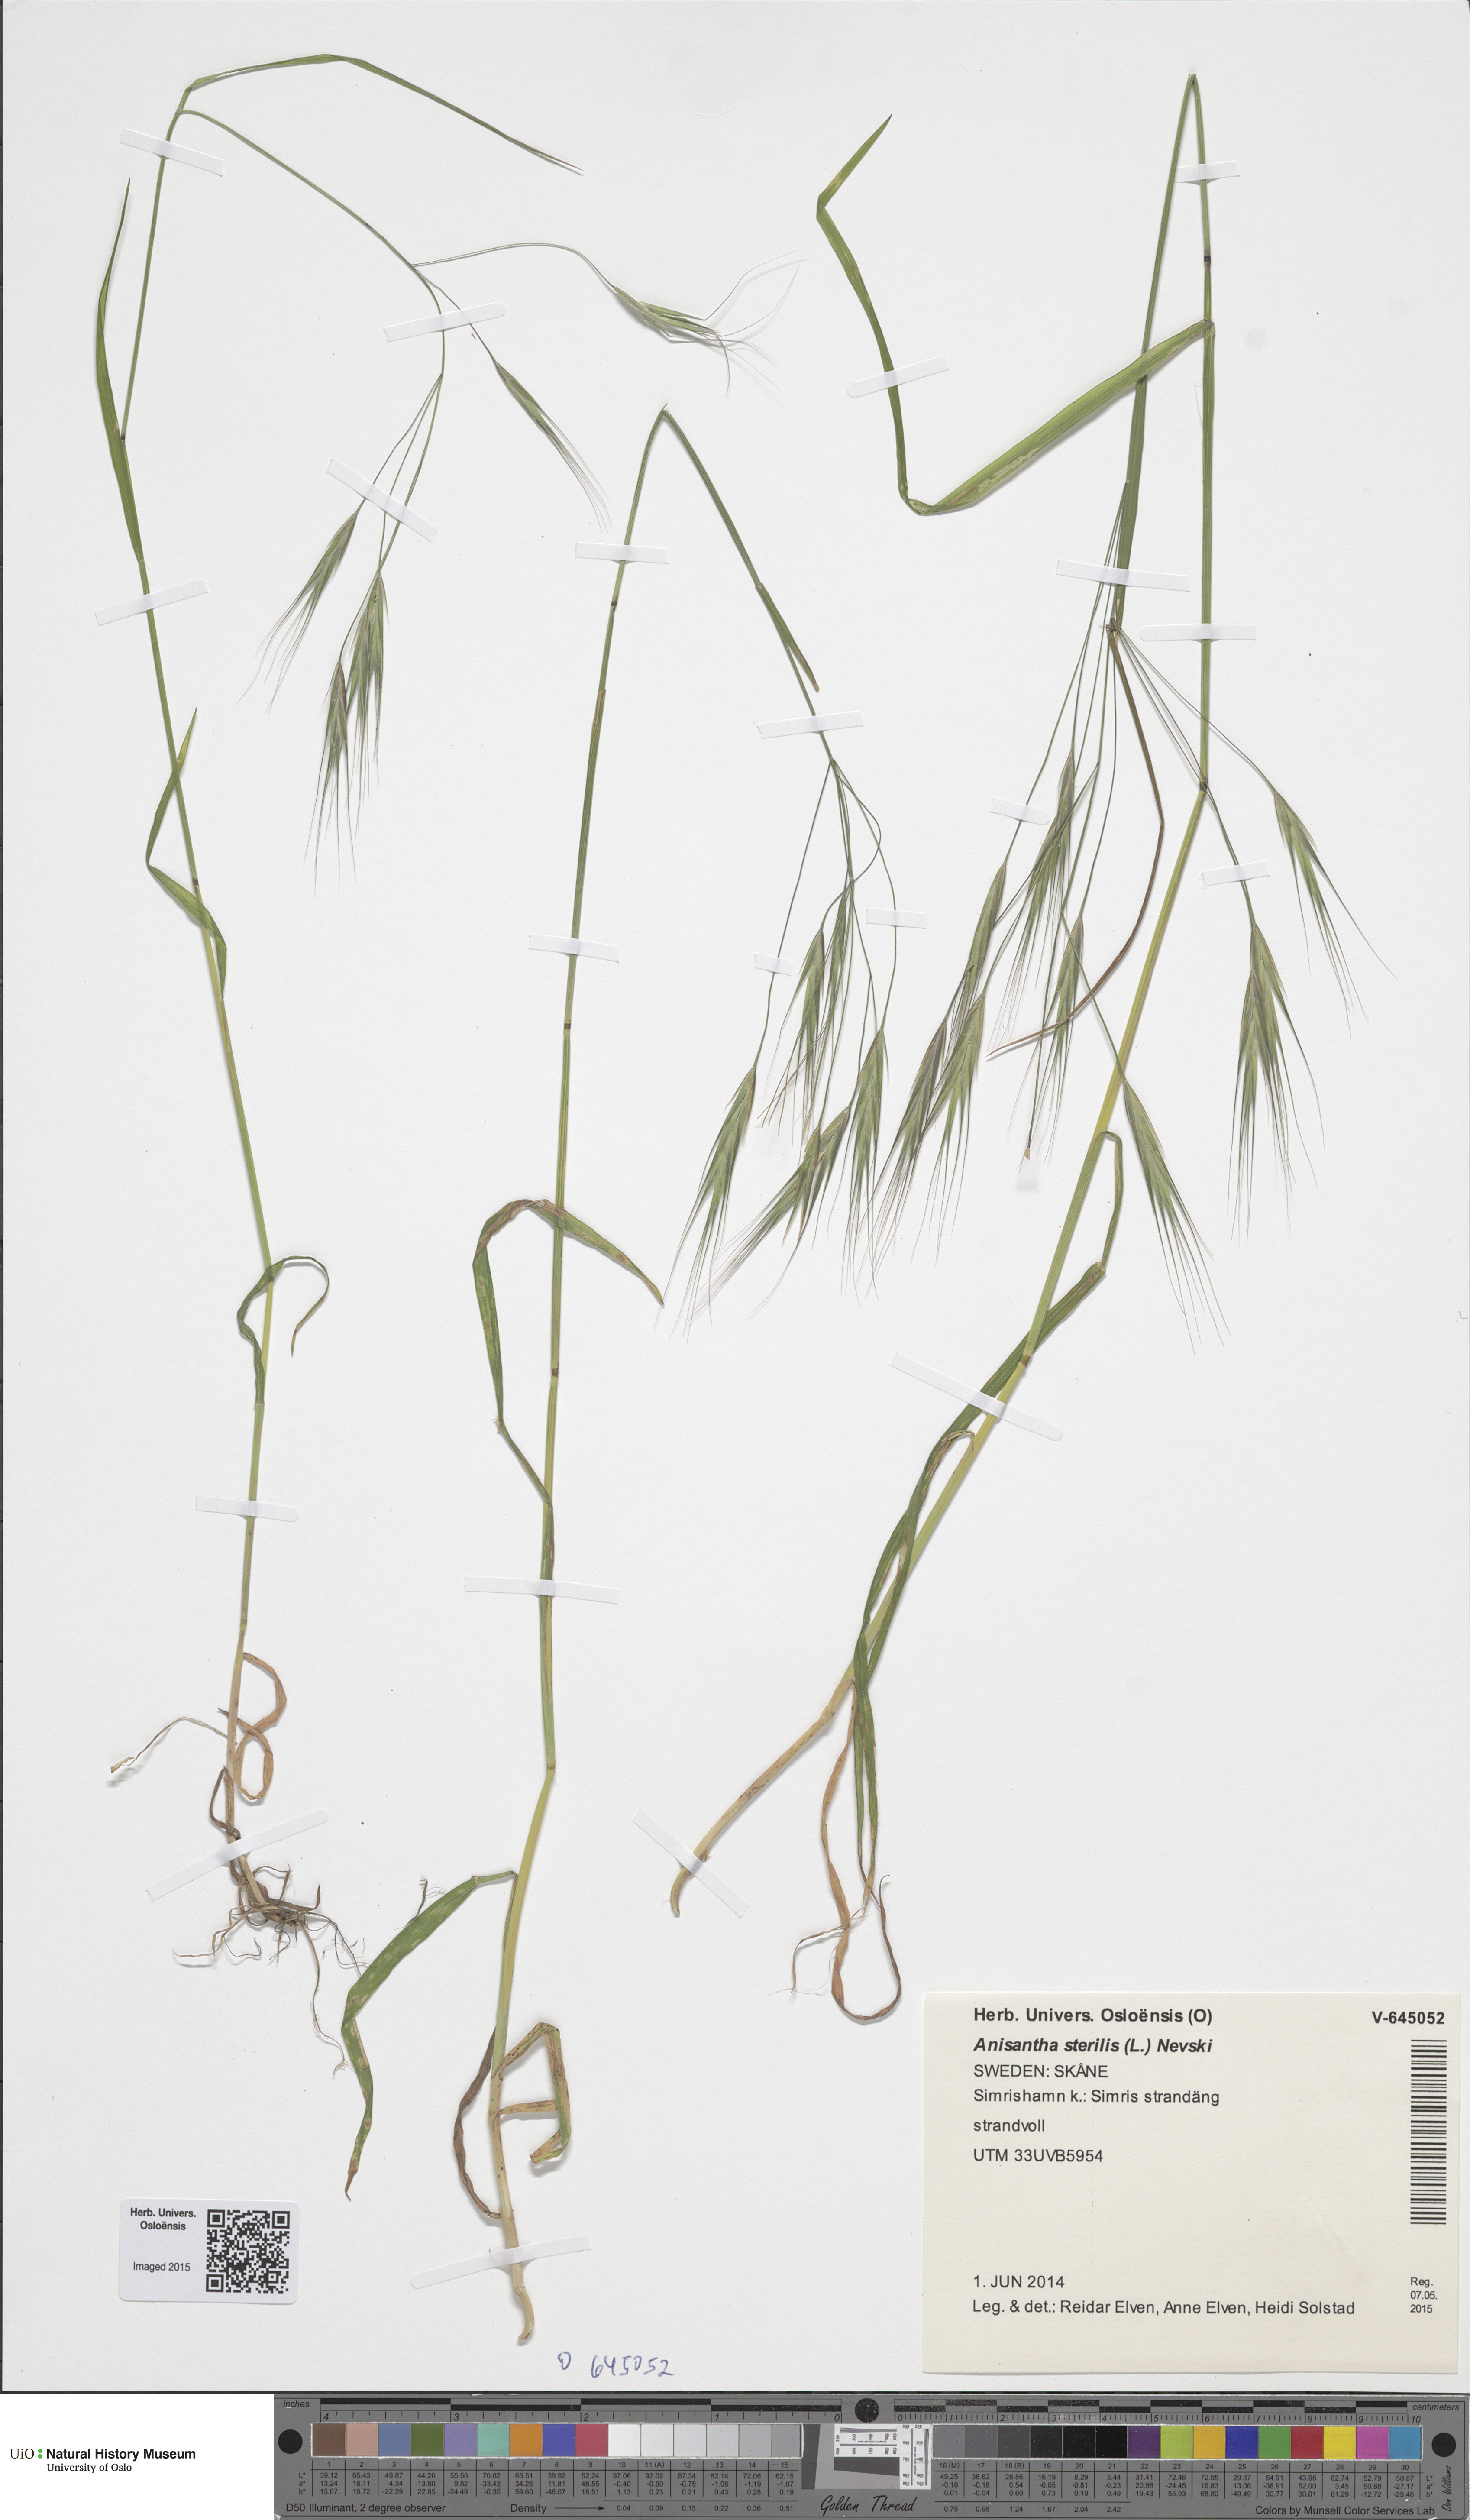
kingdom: Plantae
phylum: Tracheophyta
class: Liliopsida
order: Poales
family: Poaceae
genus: Bromus
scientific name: Bromus sterilis
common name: Poverty brome
